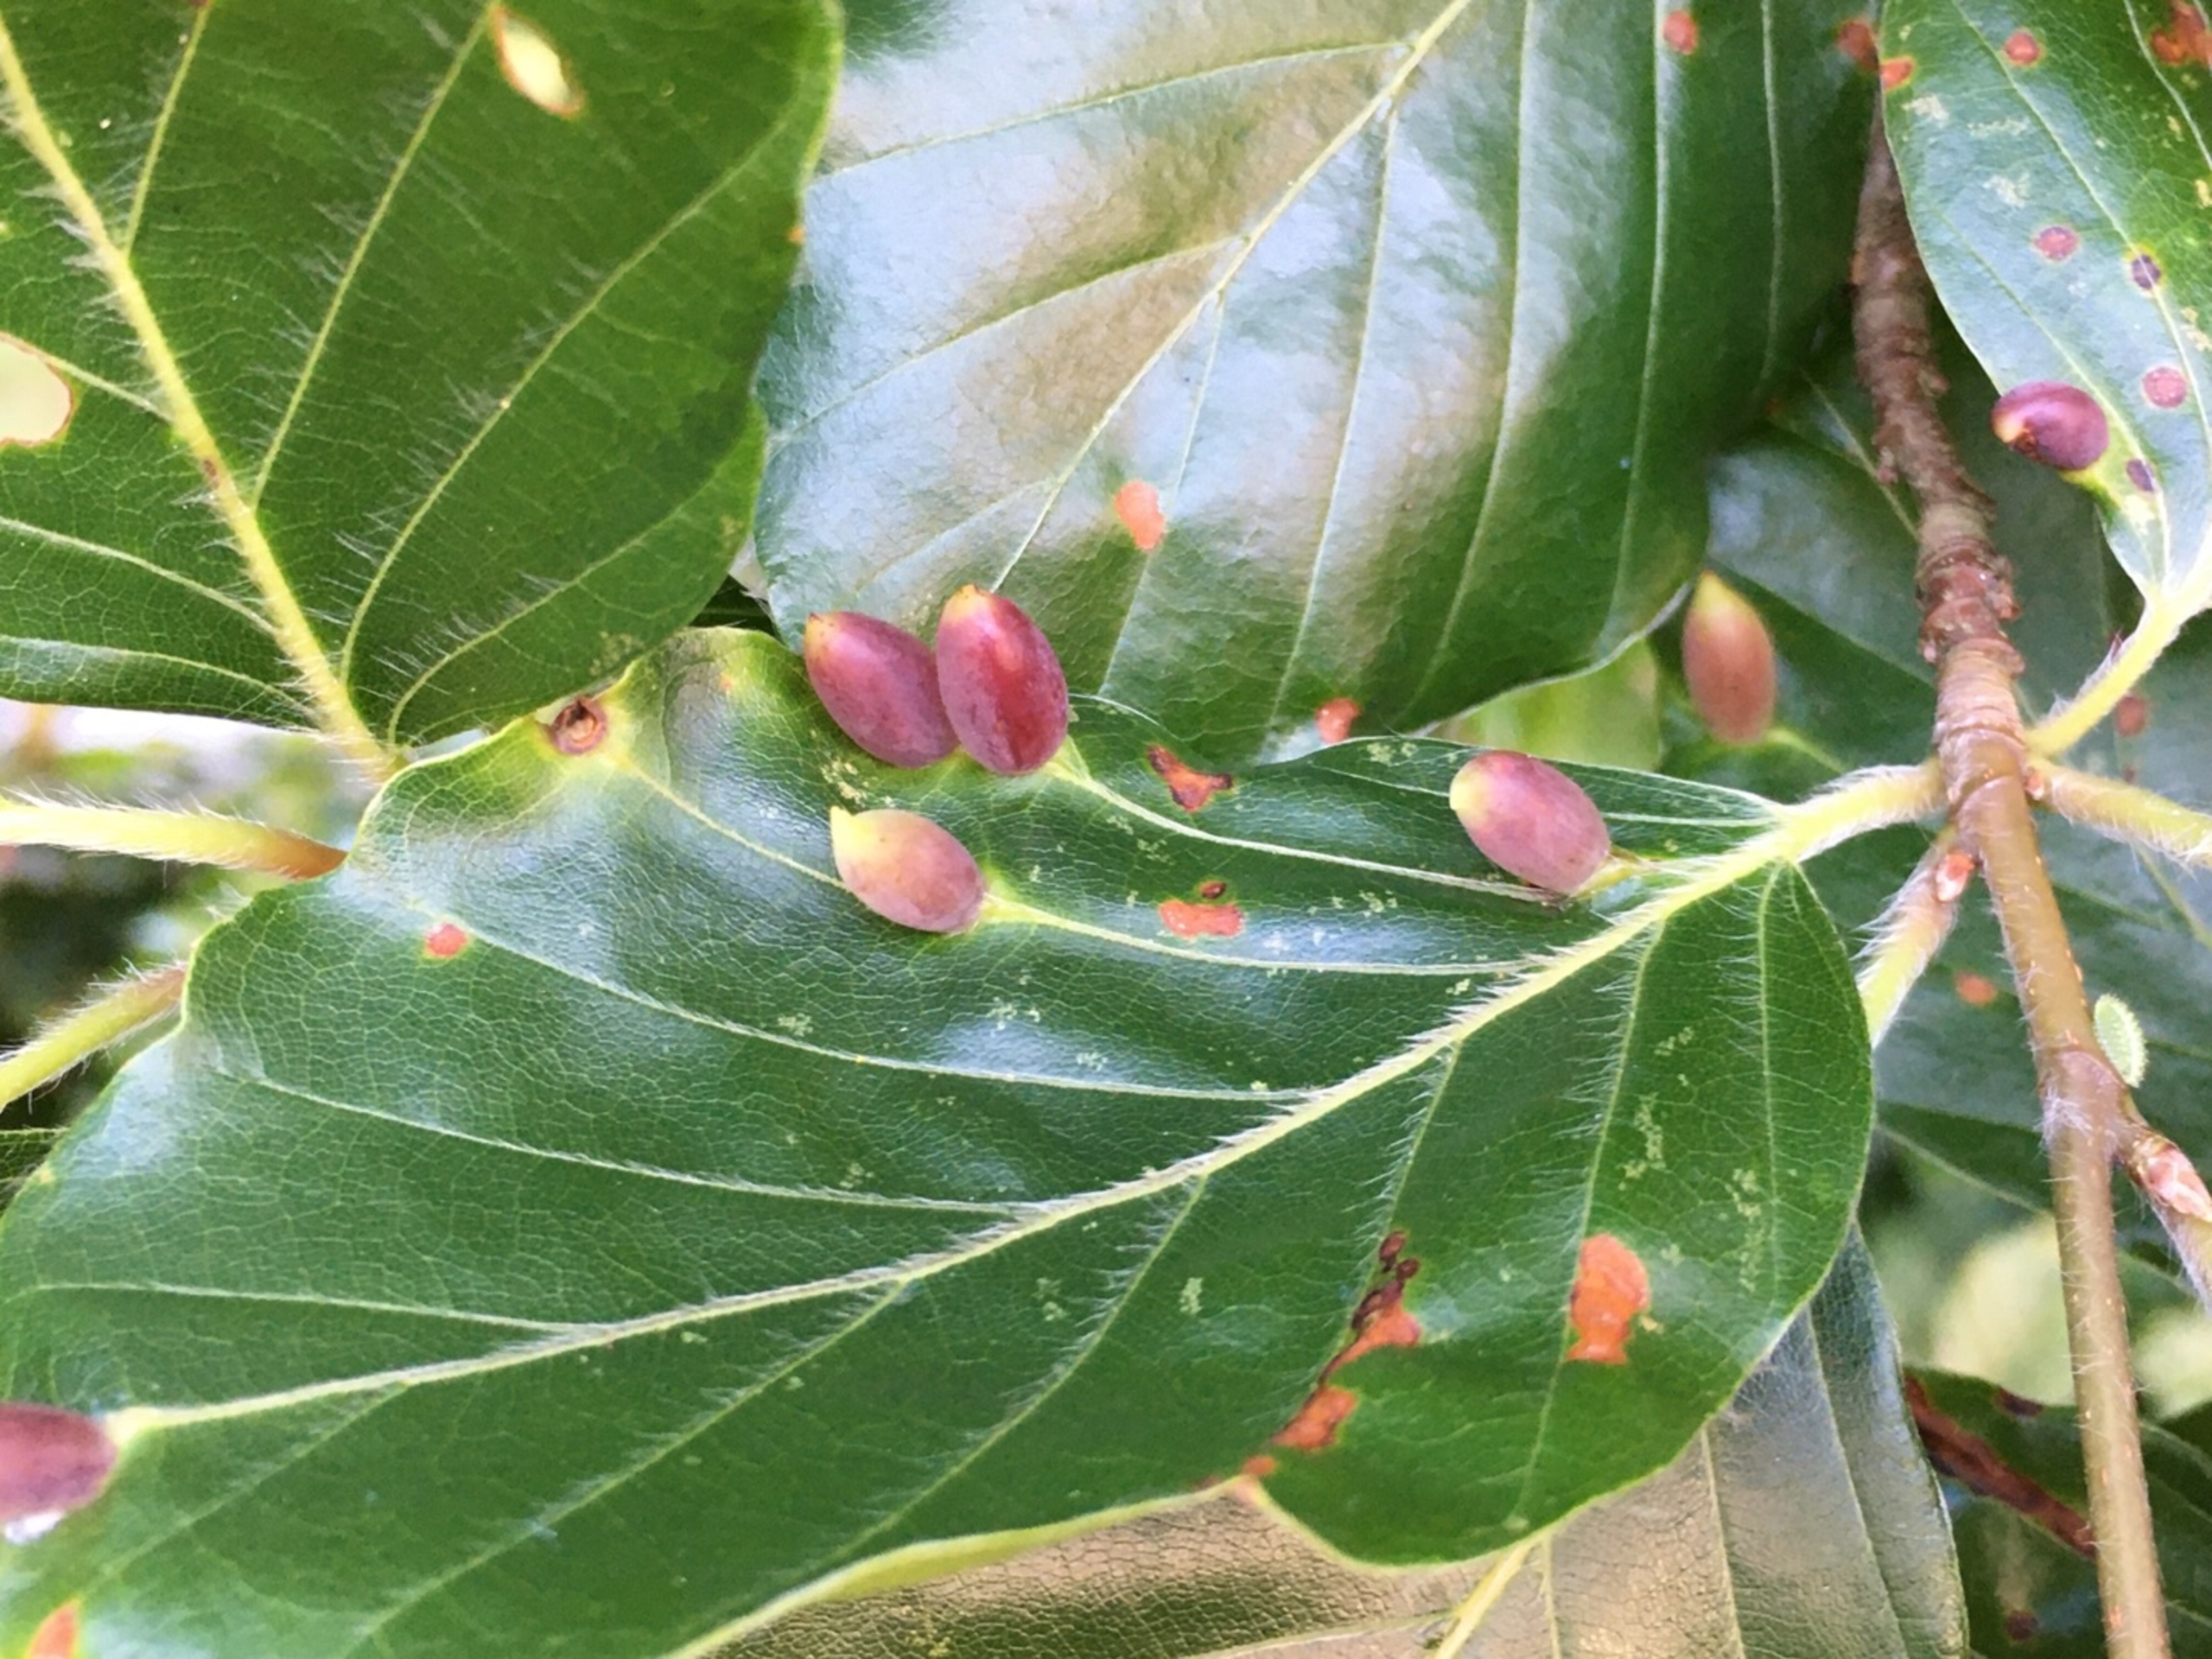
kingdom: Animalia
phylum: Arthropoda
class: Insecta
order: Diptera
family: Cecidomyiidae
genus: Mikiola
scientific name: Mikiola fagi
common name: Bøgegalmyg
